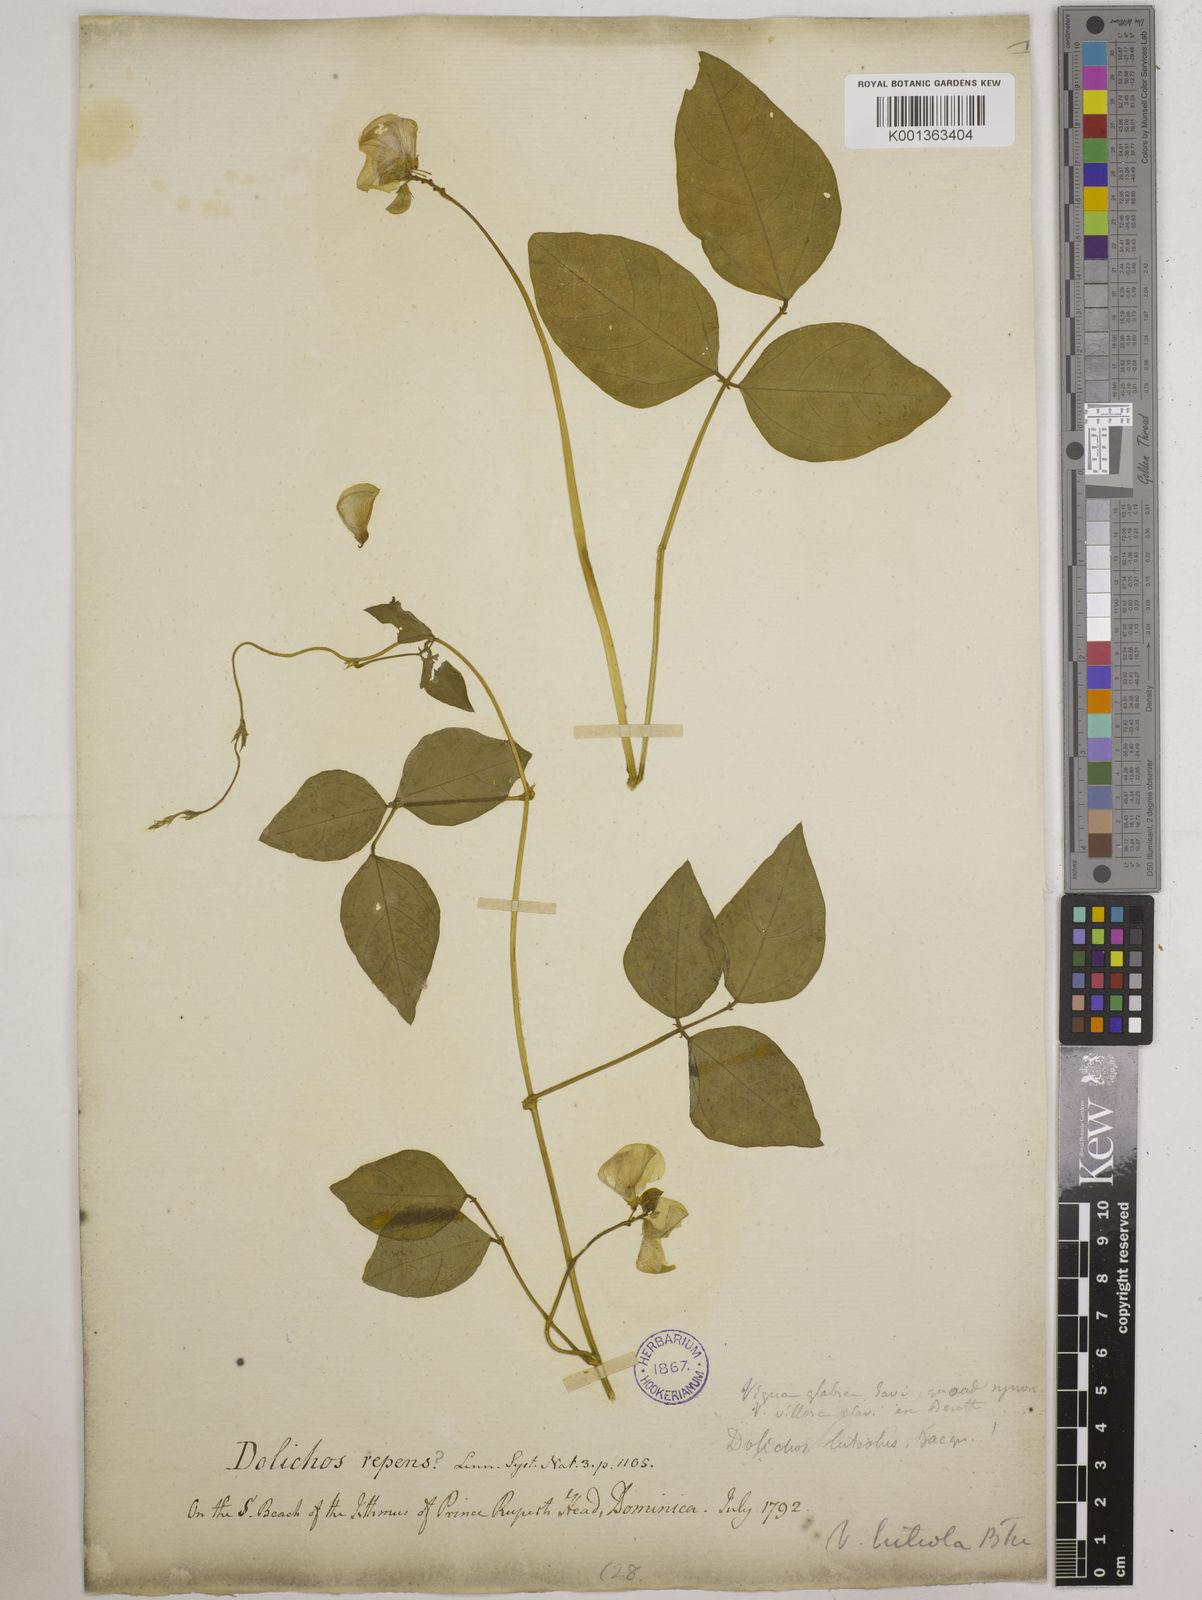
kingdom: Plantae
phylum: Tracheophyta
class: Magnoliopsida
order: Fabales
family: Fabaceae
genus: Vigna
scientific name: Vigna luteola
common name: Hairypod cowpea
